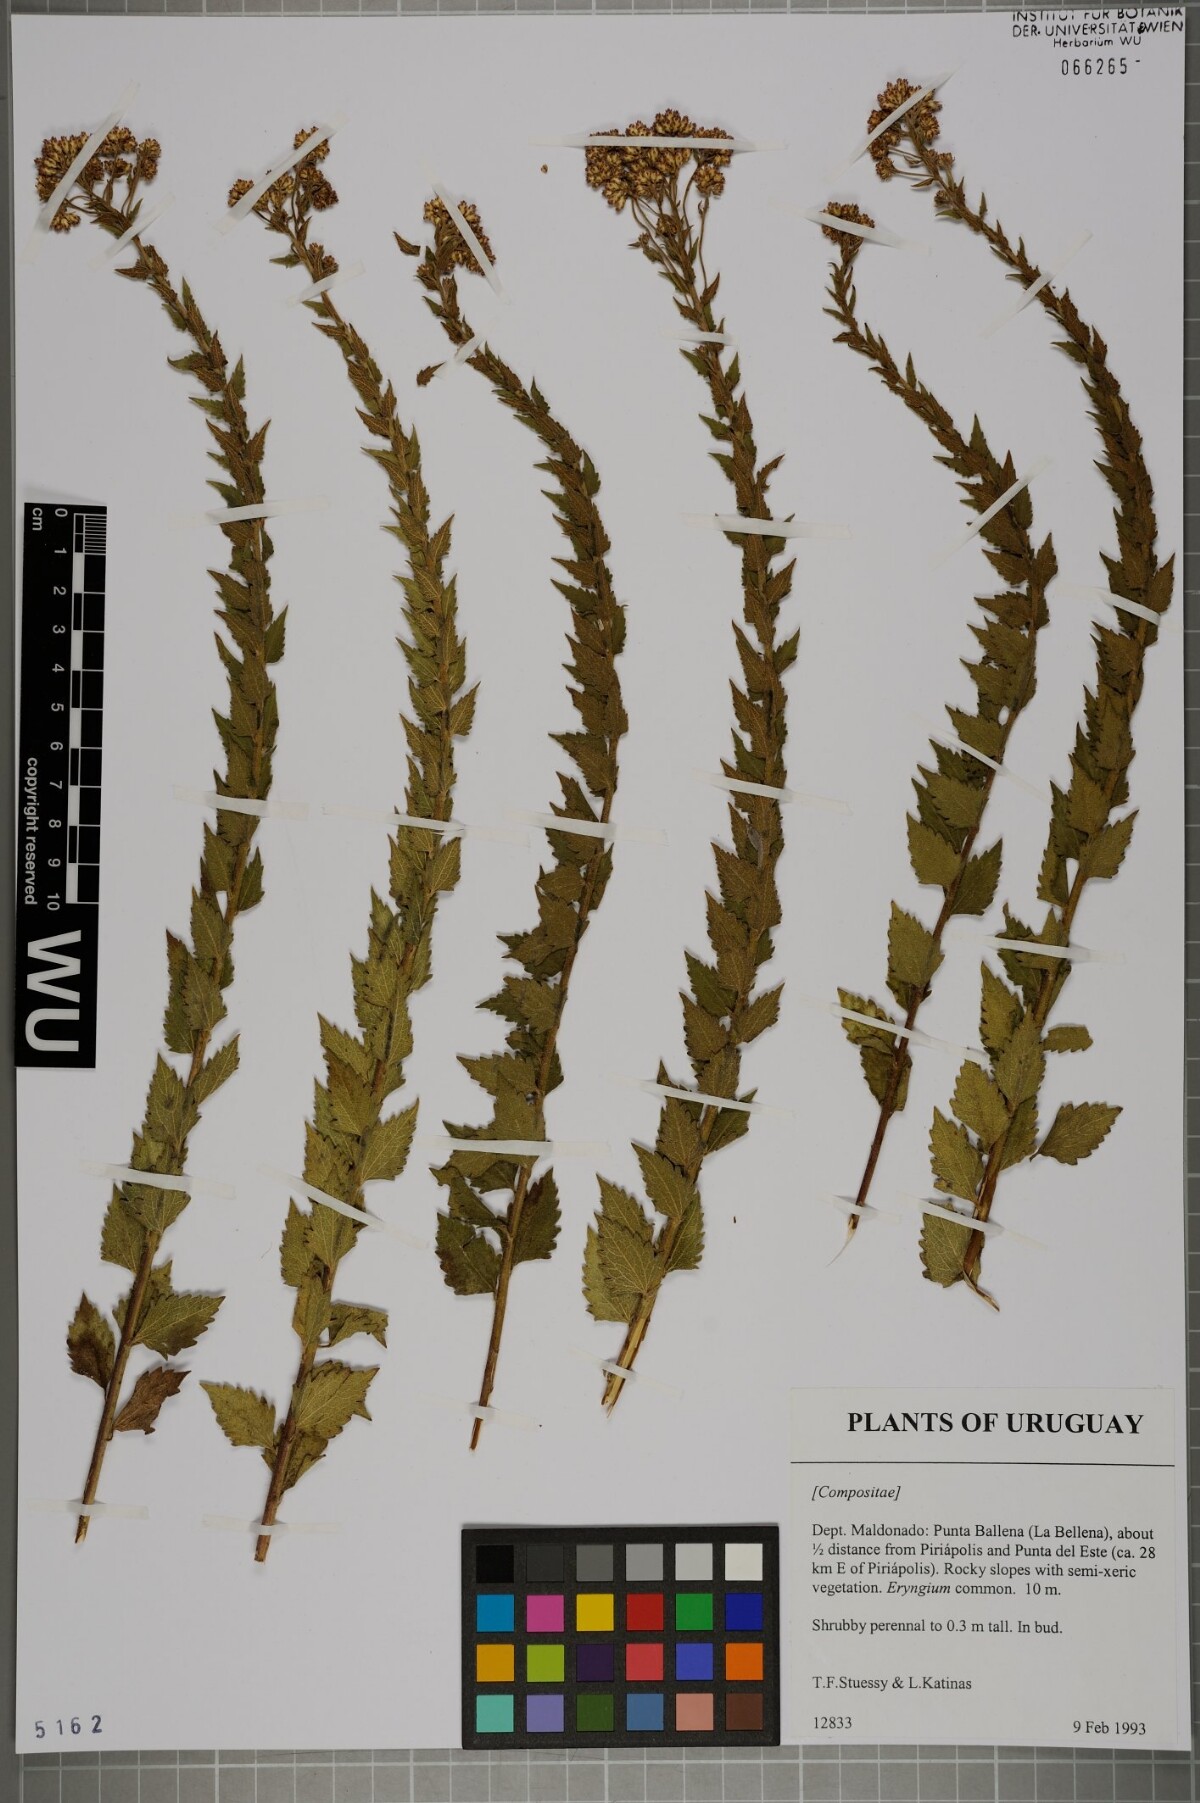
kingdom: Plantae
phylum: Tracheophyta
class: Magnoliopsida
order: Asterales
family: Asteraceae
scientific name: Asteraceae
